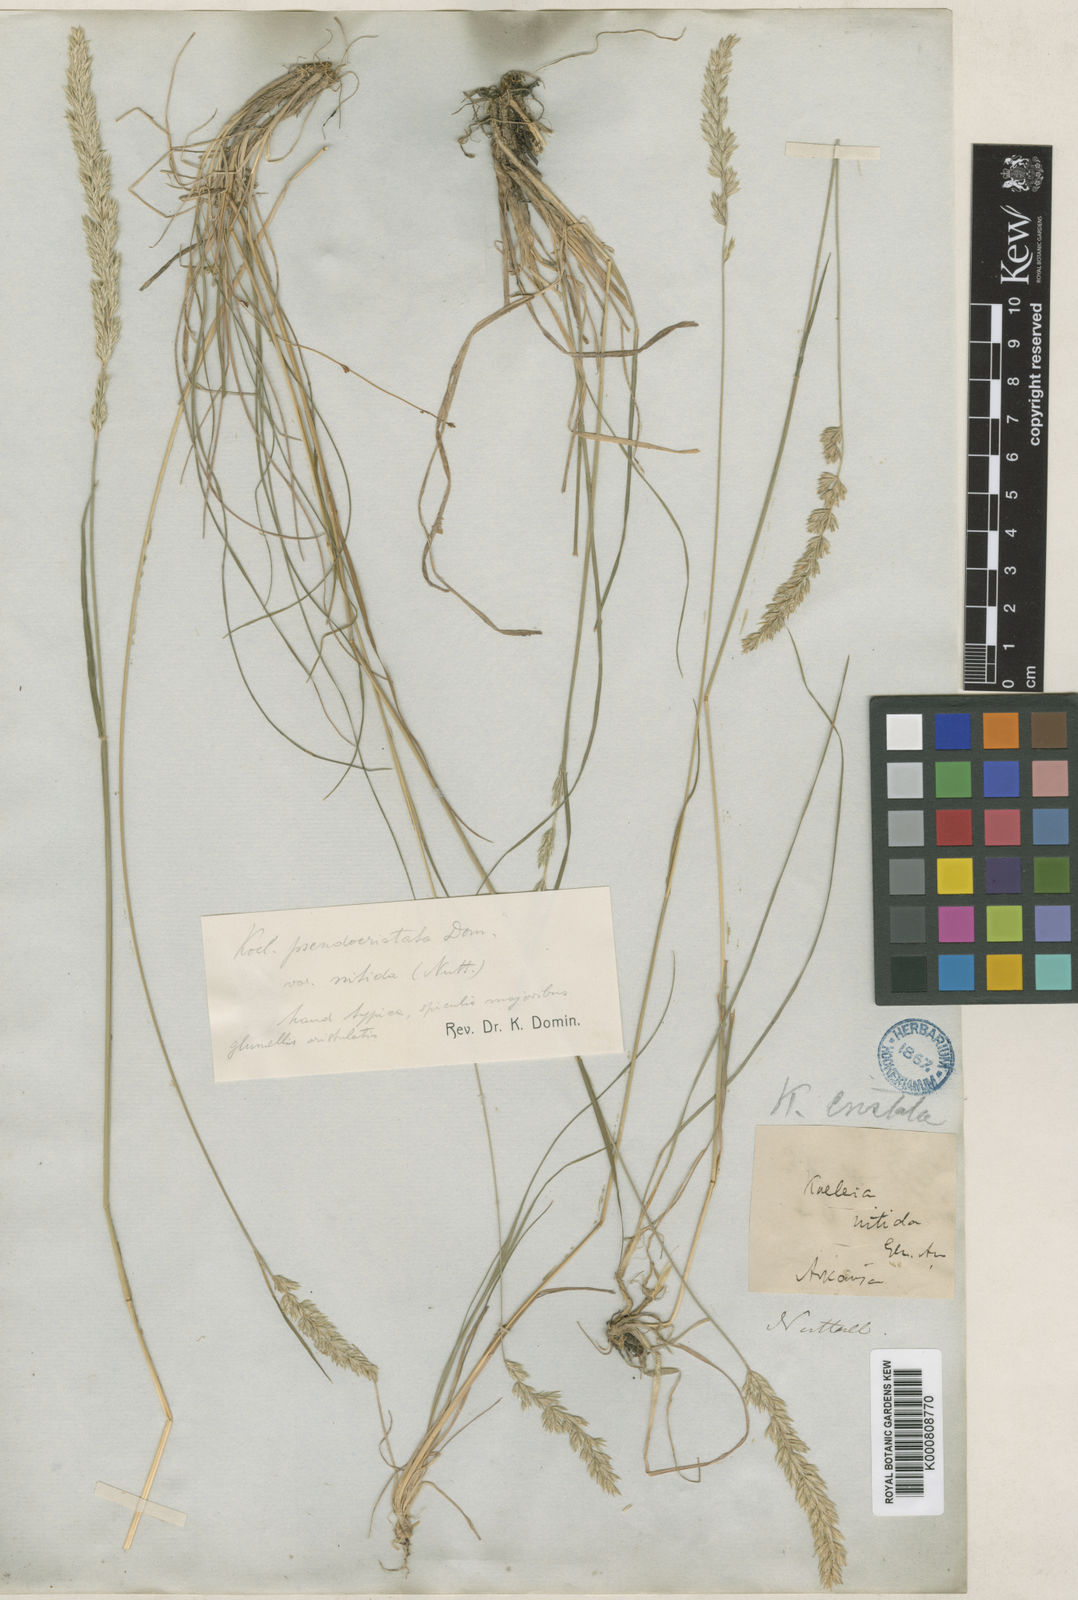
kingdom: Plantae
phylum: Tracheophyta
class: Liliopsida
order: Poales
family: Poaceae
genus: Koeleria
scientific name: Koeleria macrantha
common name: Crested hair-grass
